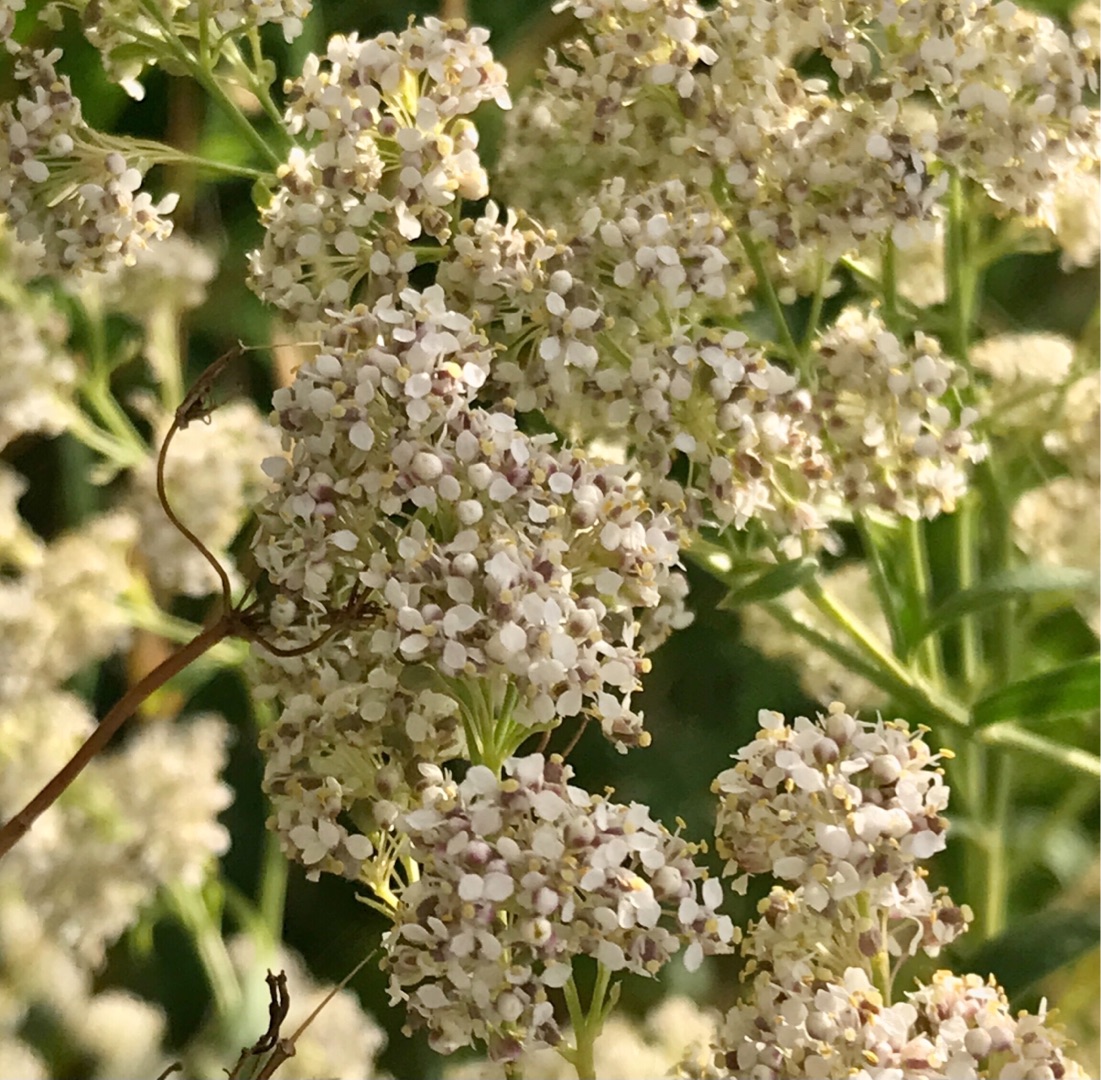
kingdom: Plantae
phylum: Tracheophyta
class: Magnoliopsida
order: Brassicales
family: Brassicaceae
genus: Lepidium
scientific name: Lepidium latifolium
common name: Strand-karse
